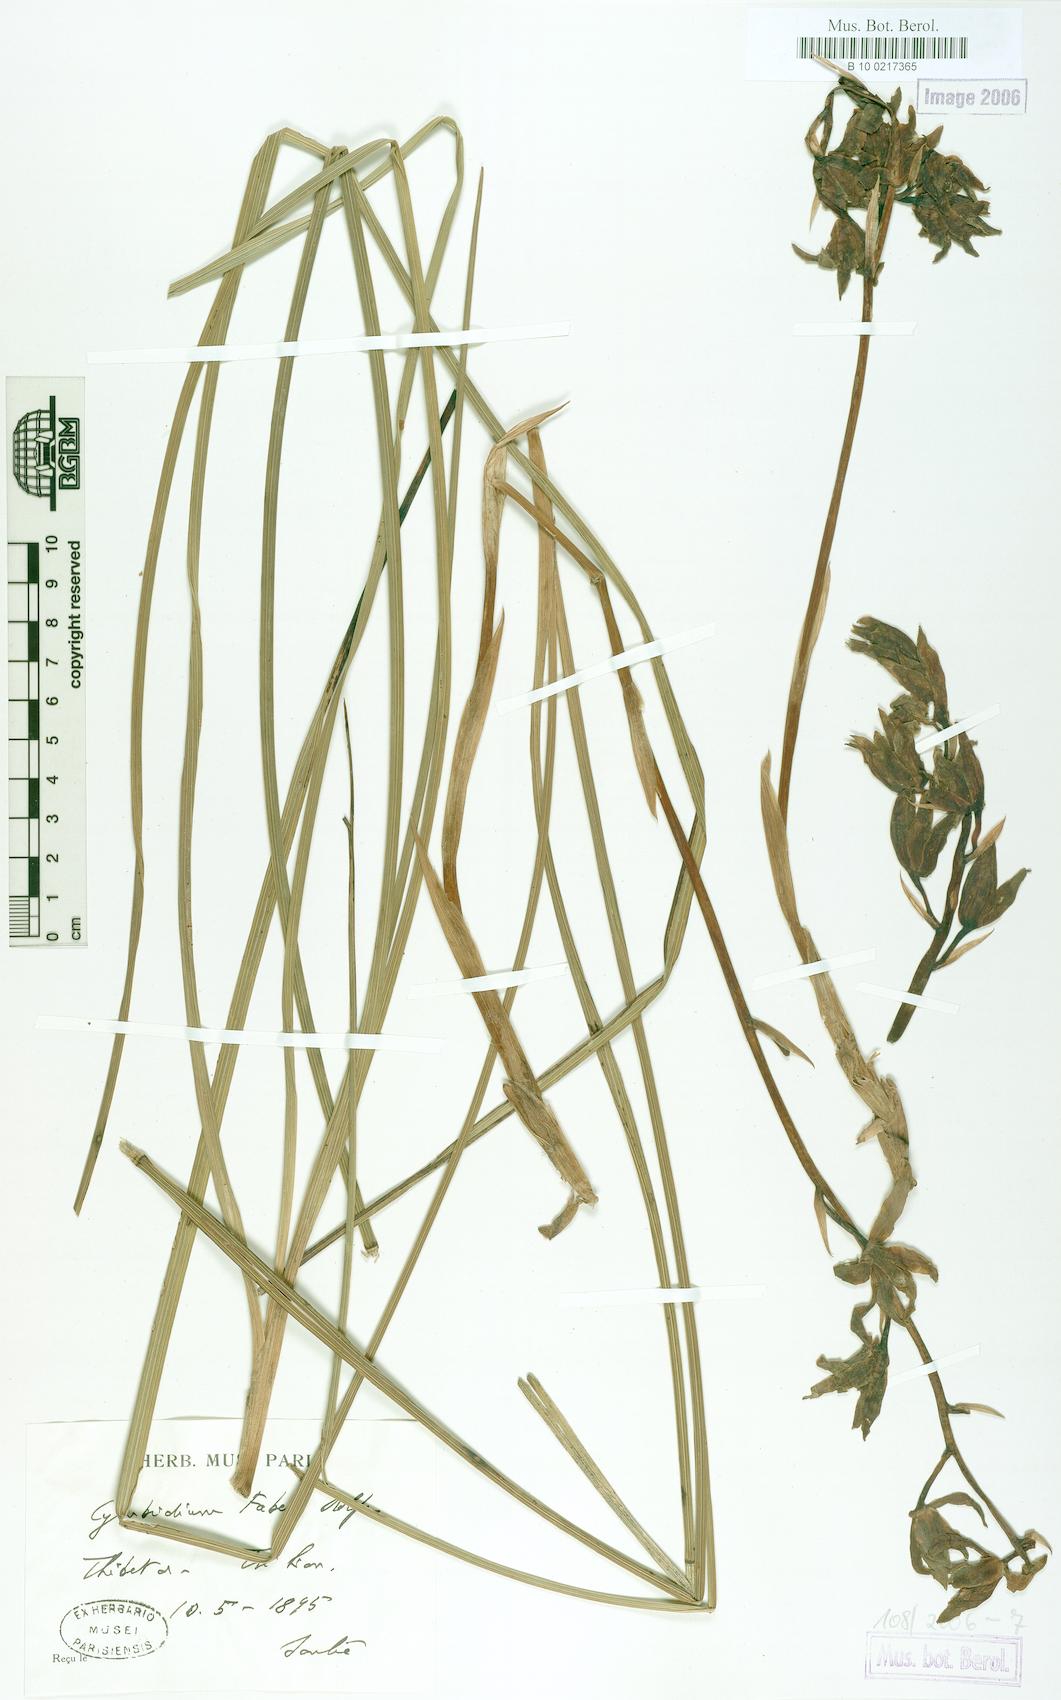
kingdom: Plantae
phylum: Tracheophyta
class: Liliopsida
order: Asparagales
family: Orchidaceae
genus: Cymbidium
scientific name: Cymbidium faberi
